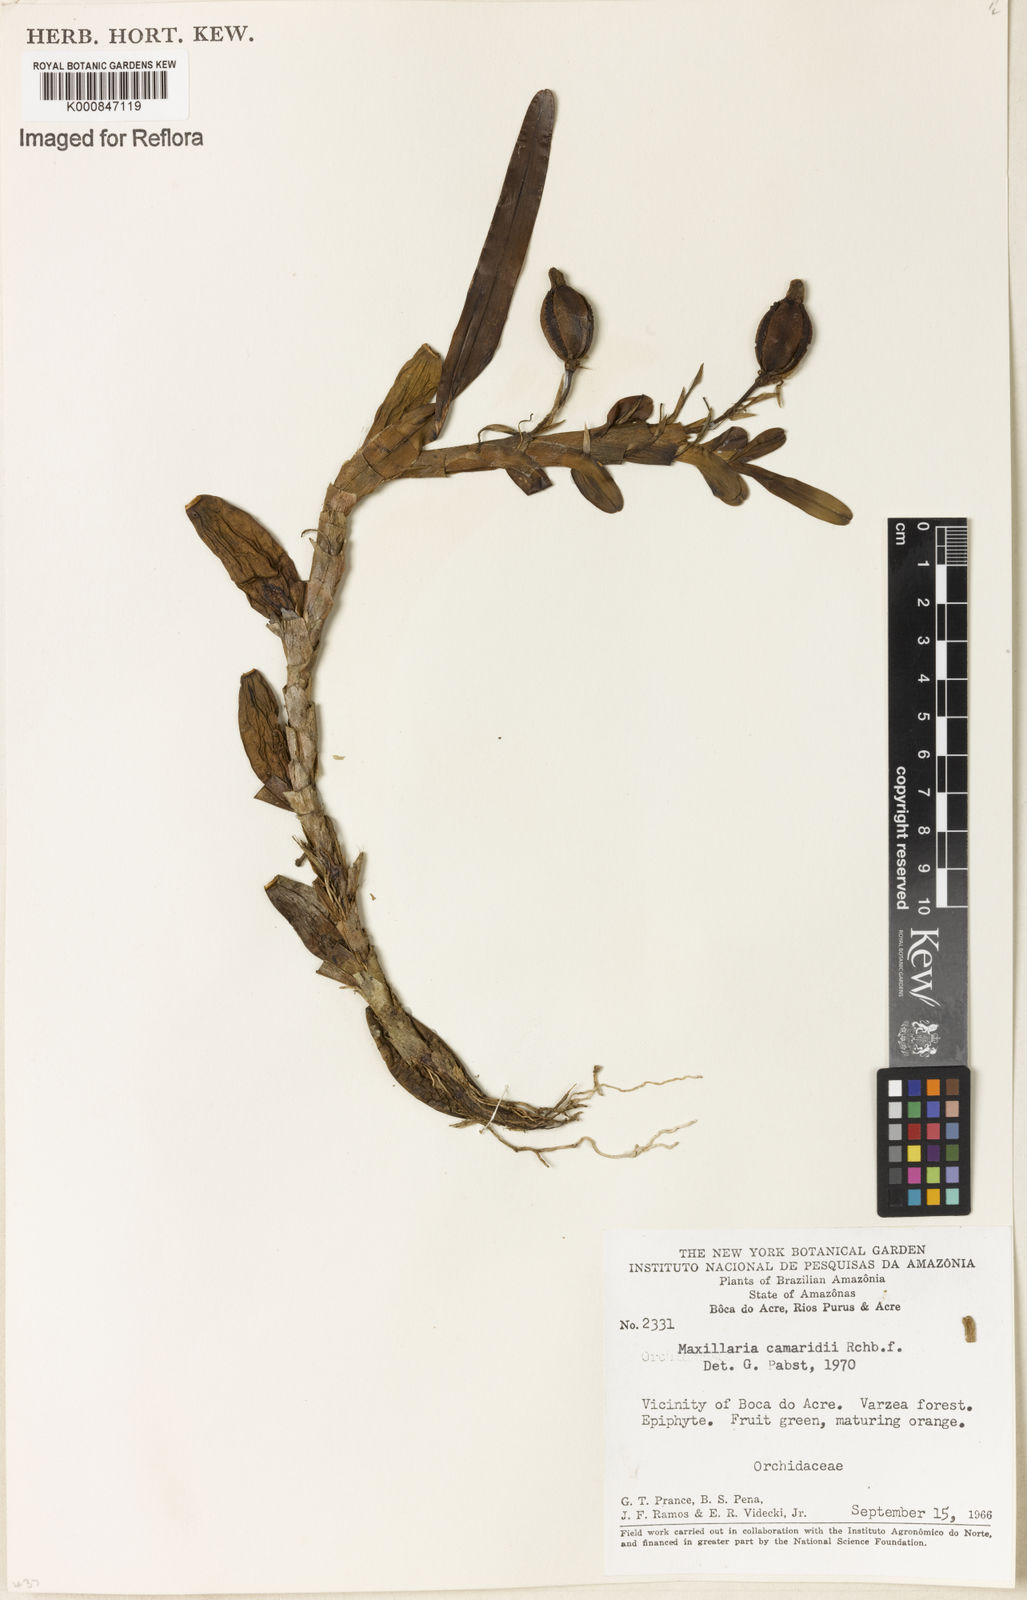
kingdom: Plantae
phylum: Tracheophyta
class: Liliopsida
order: Asparagales
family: Orchidaceae
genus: Maxillaria
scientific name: Maxillaria lutescens
